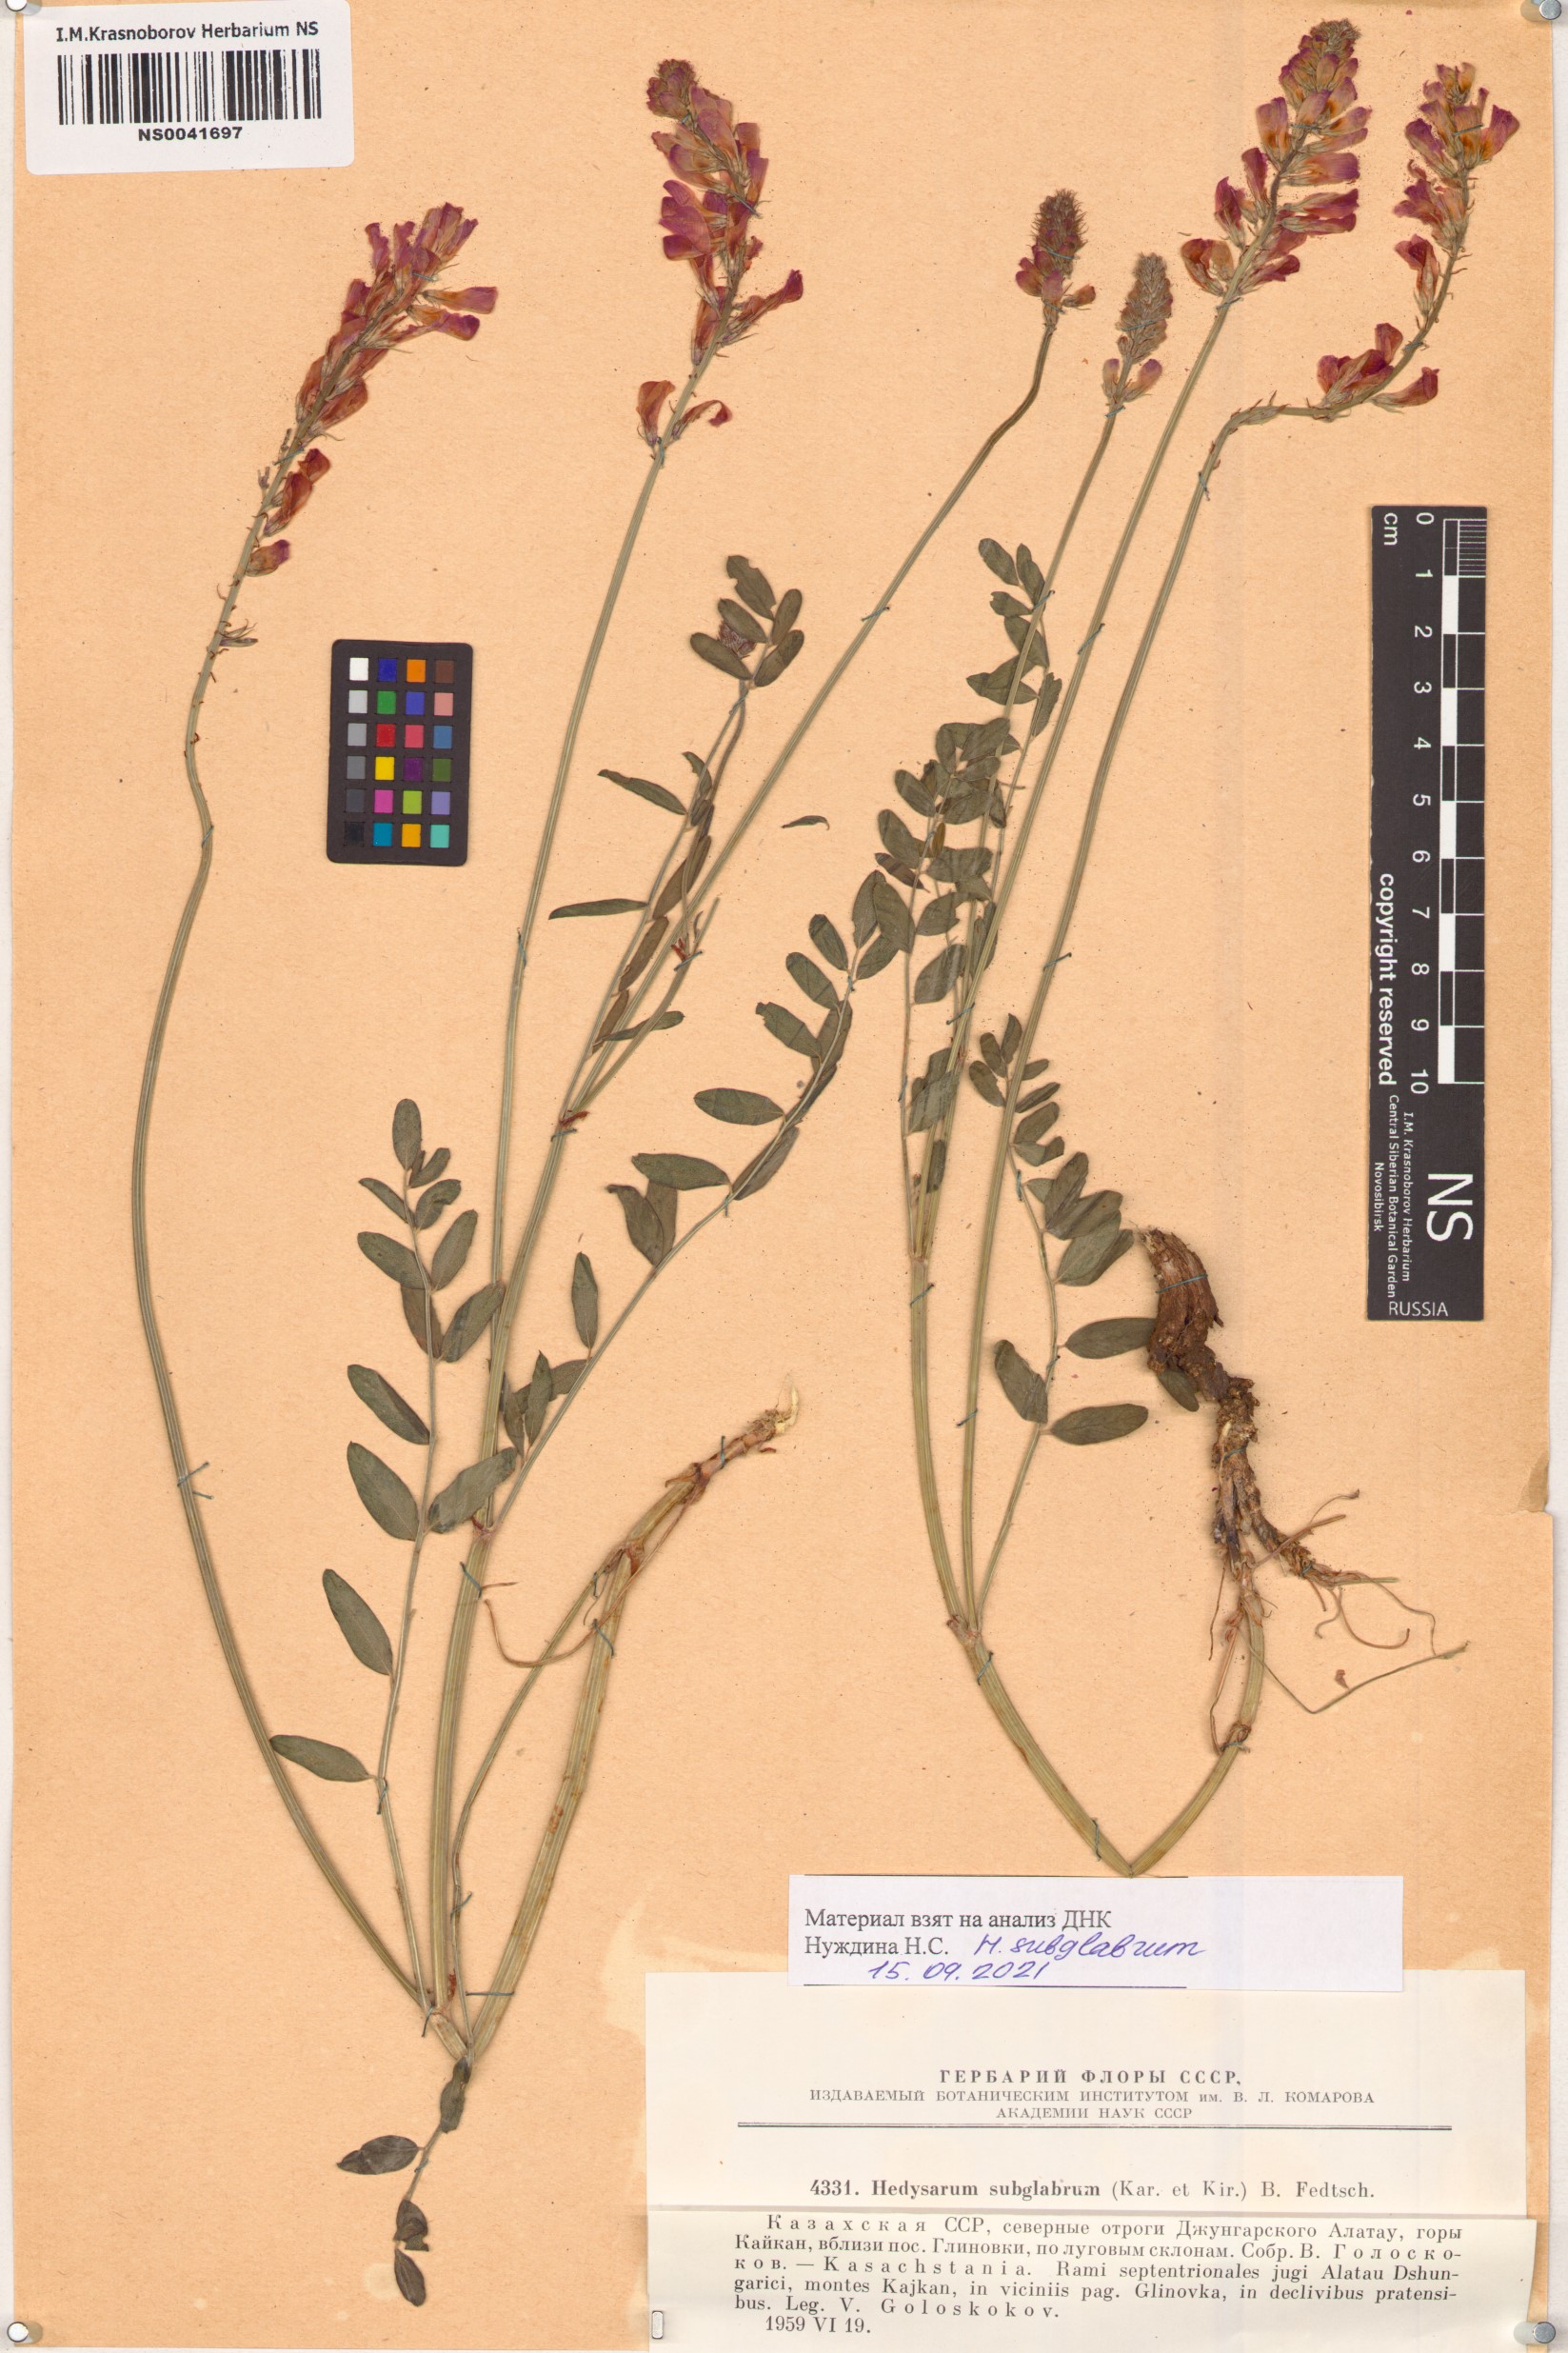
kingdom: Plantae
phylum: Tracheophyta
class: Magnoliopsida
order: Fabales
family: Fabaceae
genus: Hedysarum
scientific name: Hedysarum subglabrum
